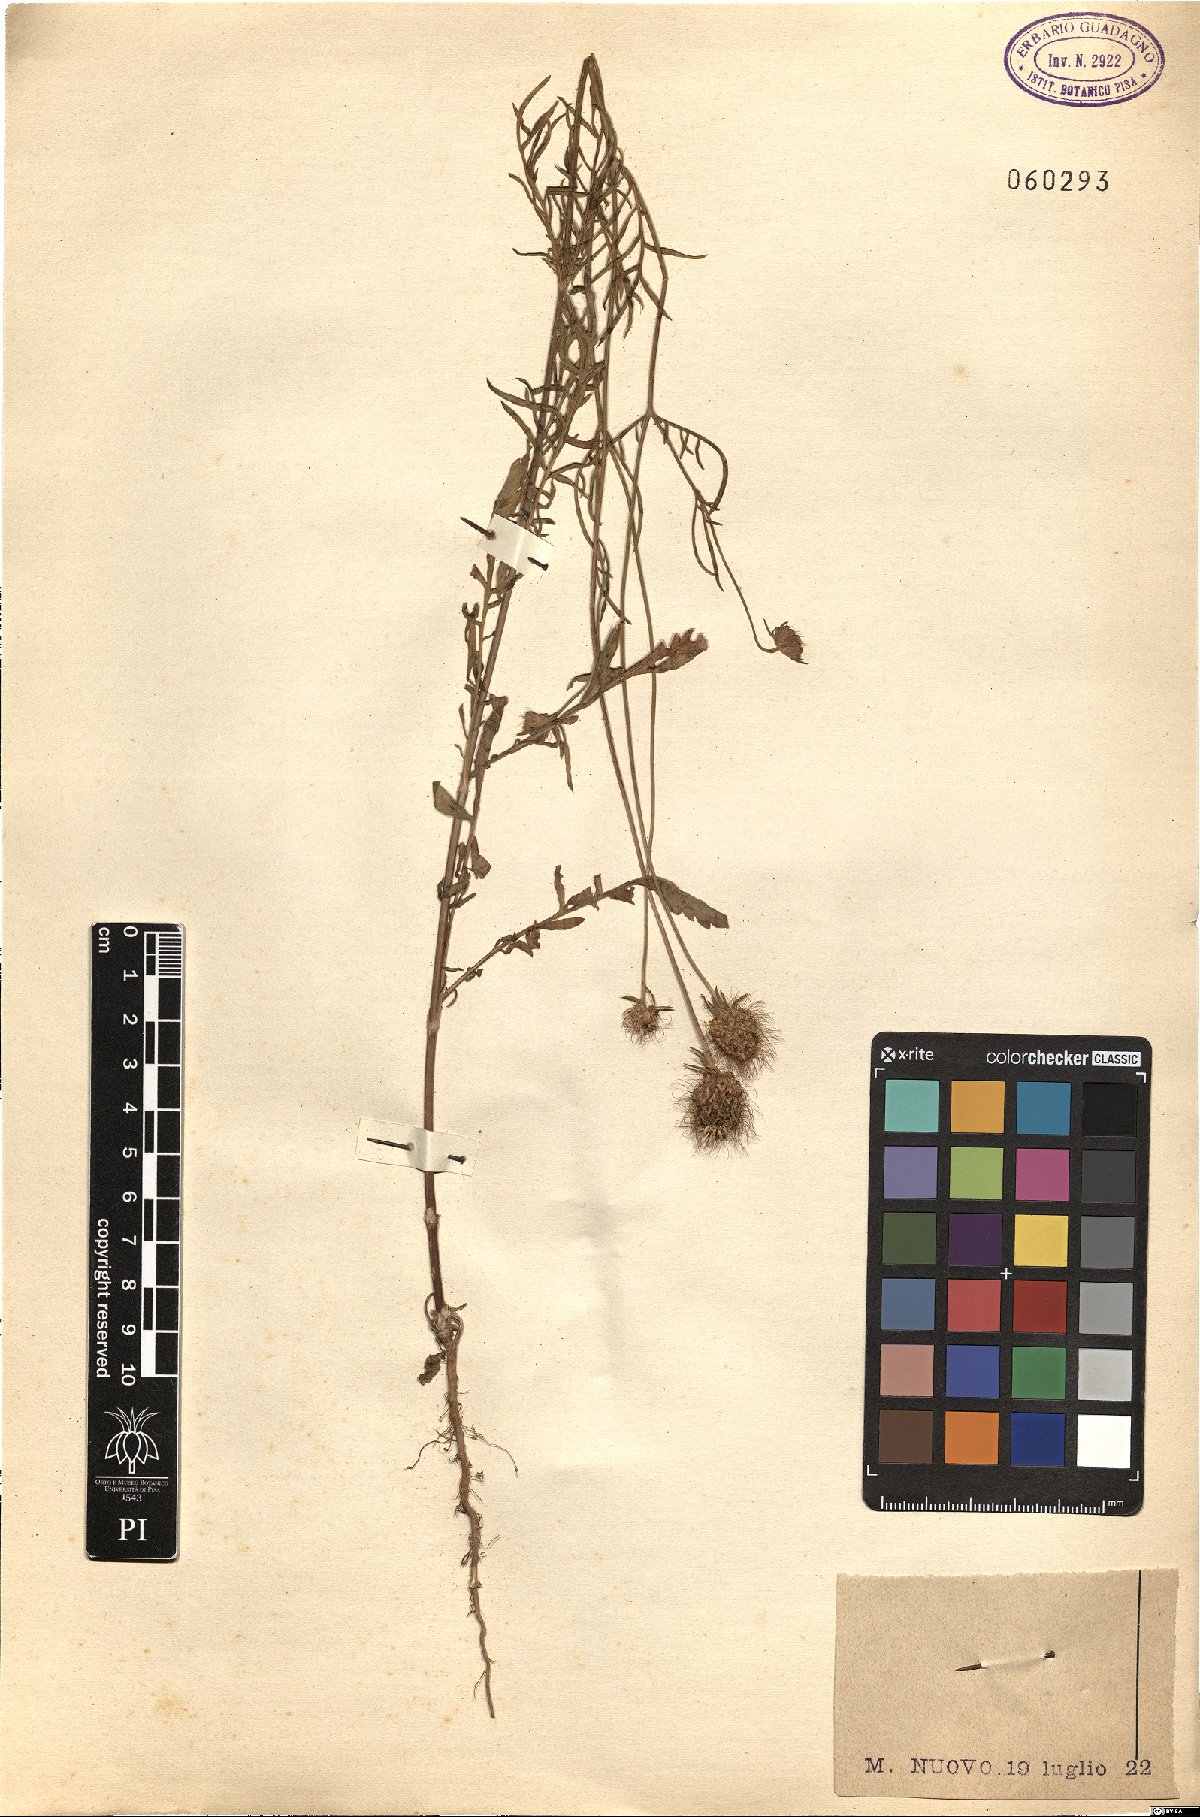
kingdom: Plantae
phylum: Tracheophyta
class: Magnoliopsida
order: Dipsacales
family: Caprifoliaceae
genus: Sixalix
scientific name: Sixalix atropurpurea
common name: Sweet scabious
